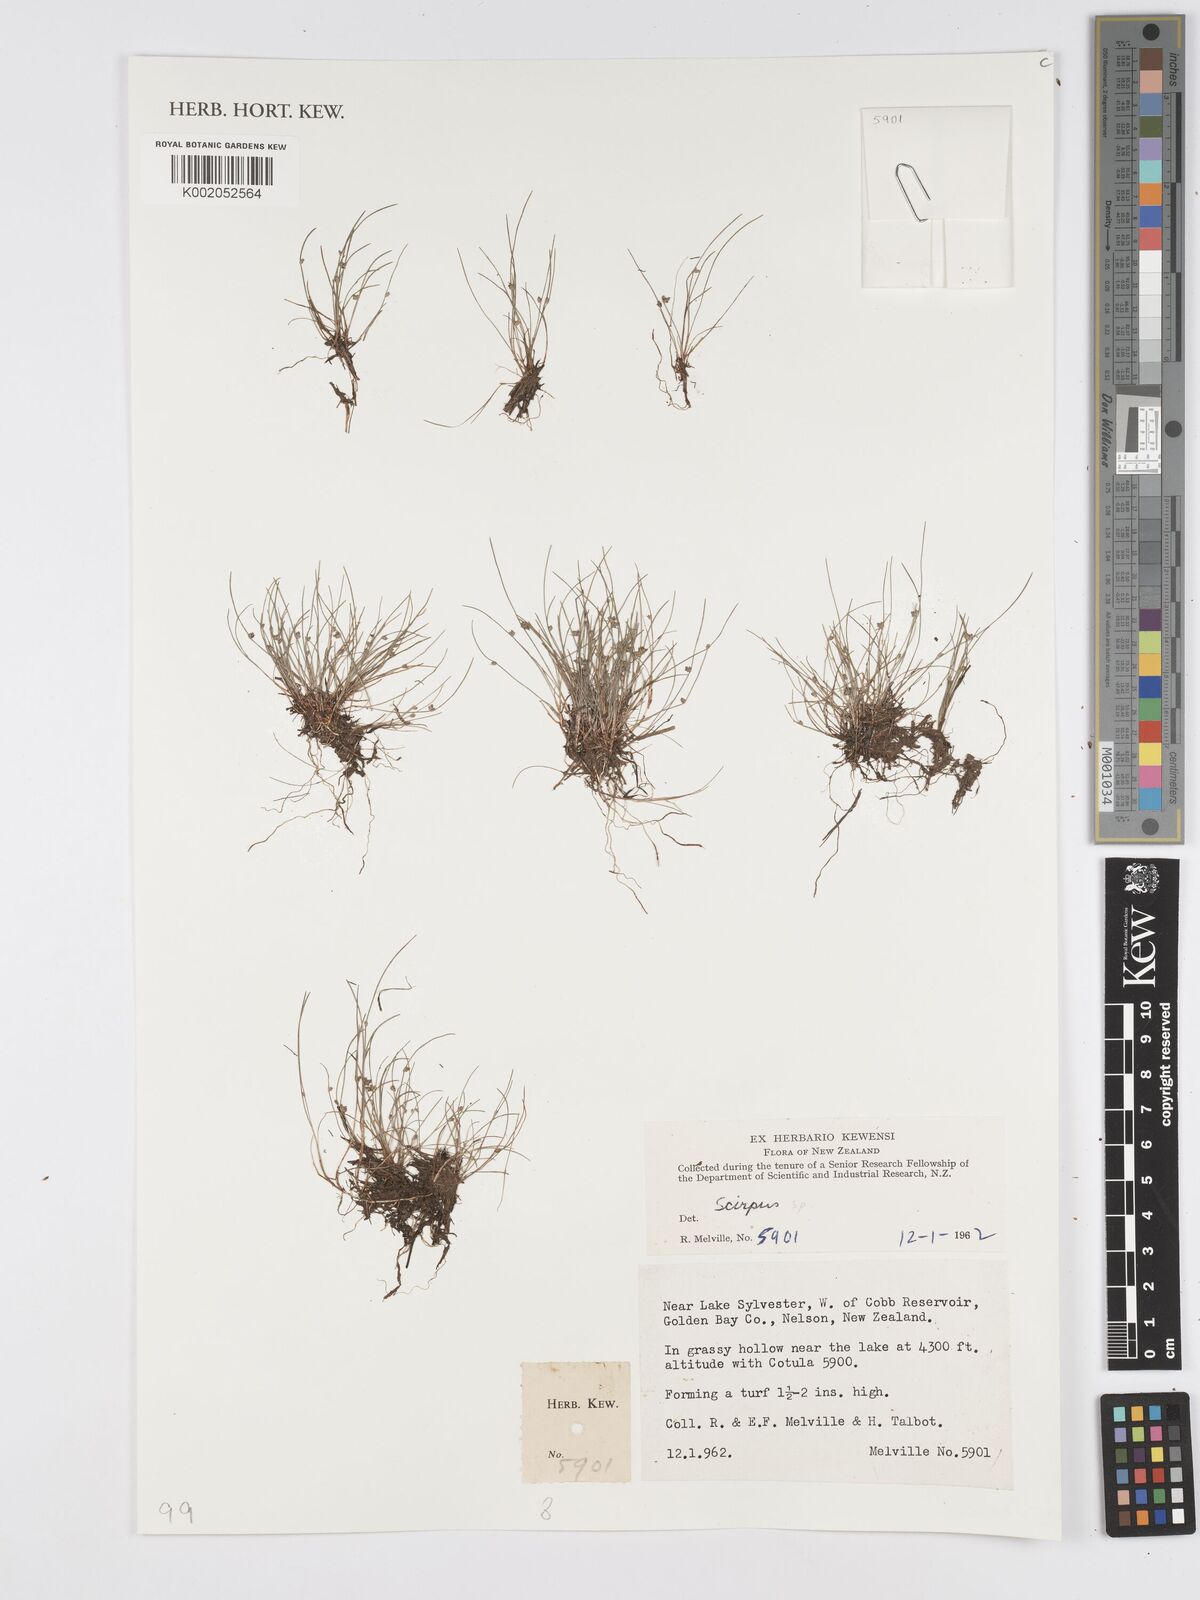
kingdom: Plantae
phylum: Tracheophyta
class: Liliopsida
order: Poales
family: Cyperaceae
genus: Scirpus
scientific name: Scirpus
